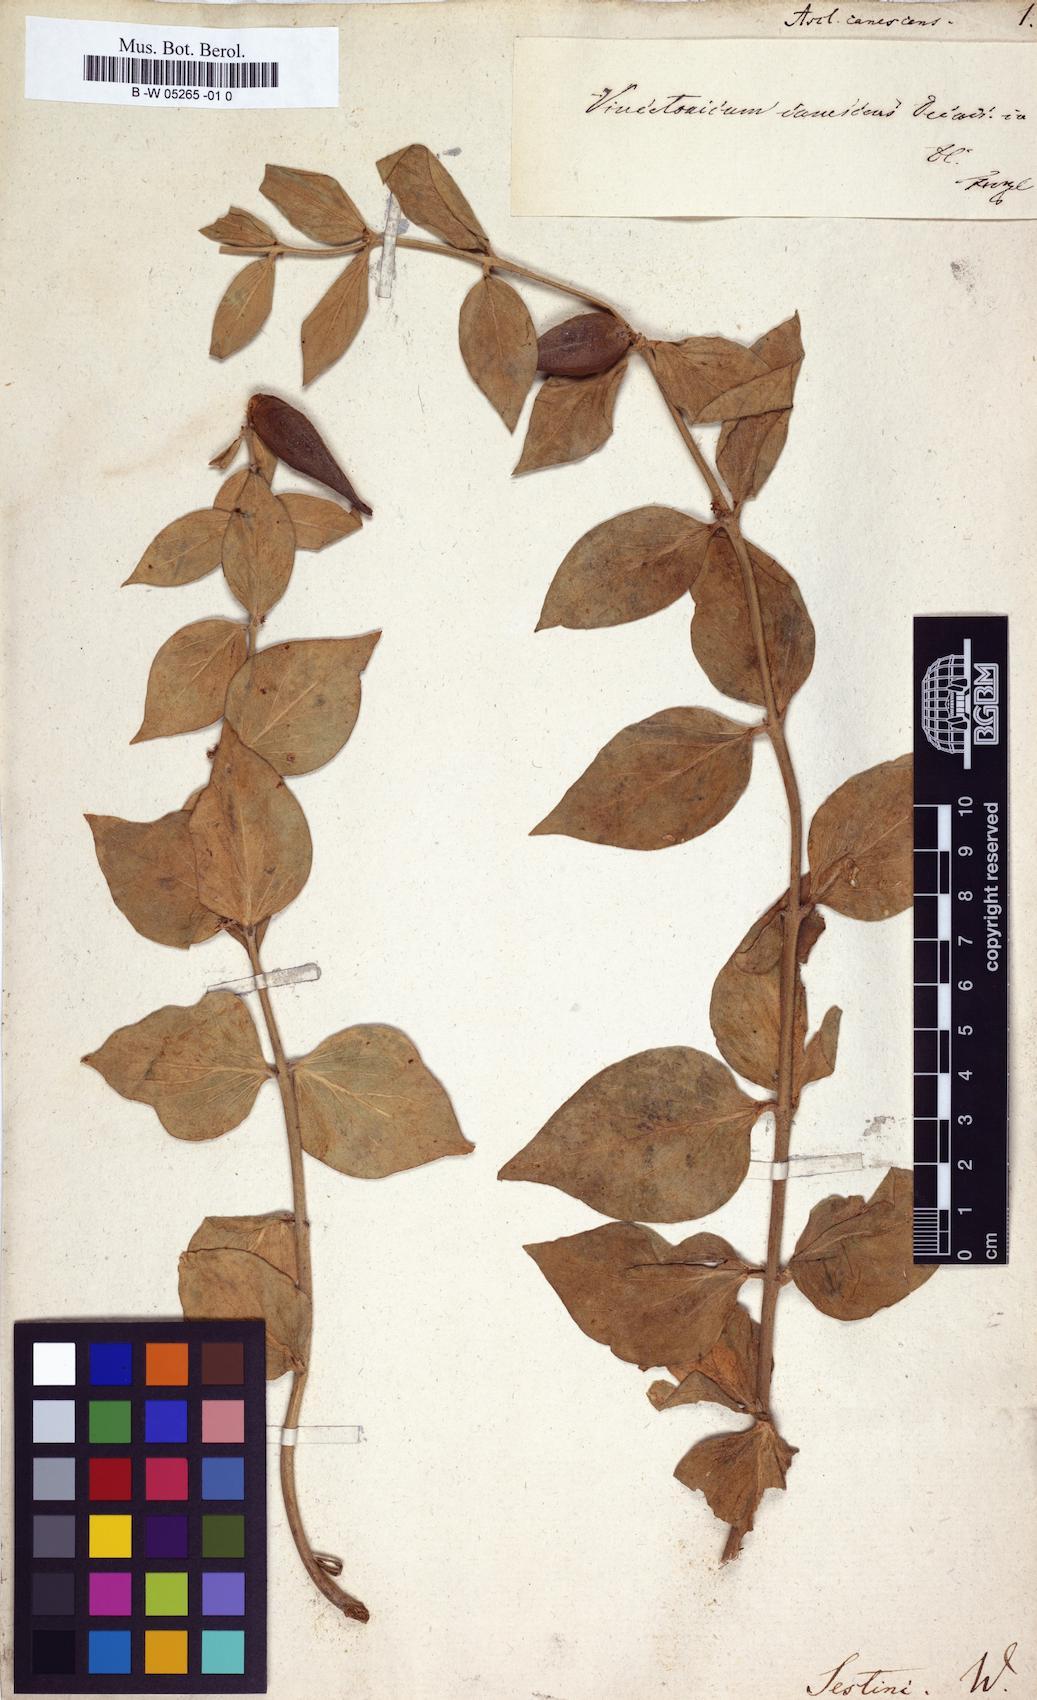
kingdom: Plantae
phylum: Tracheophyta
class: Magnoliopsida
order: Gentianales
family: Apocynaceae
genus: Vincetoxicum
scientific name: Vincetoxicum canescens
